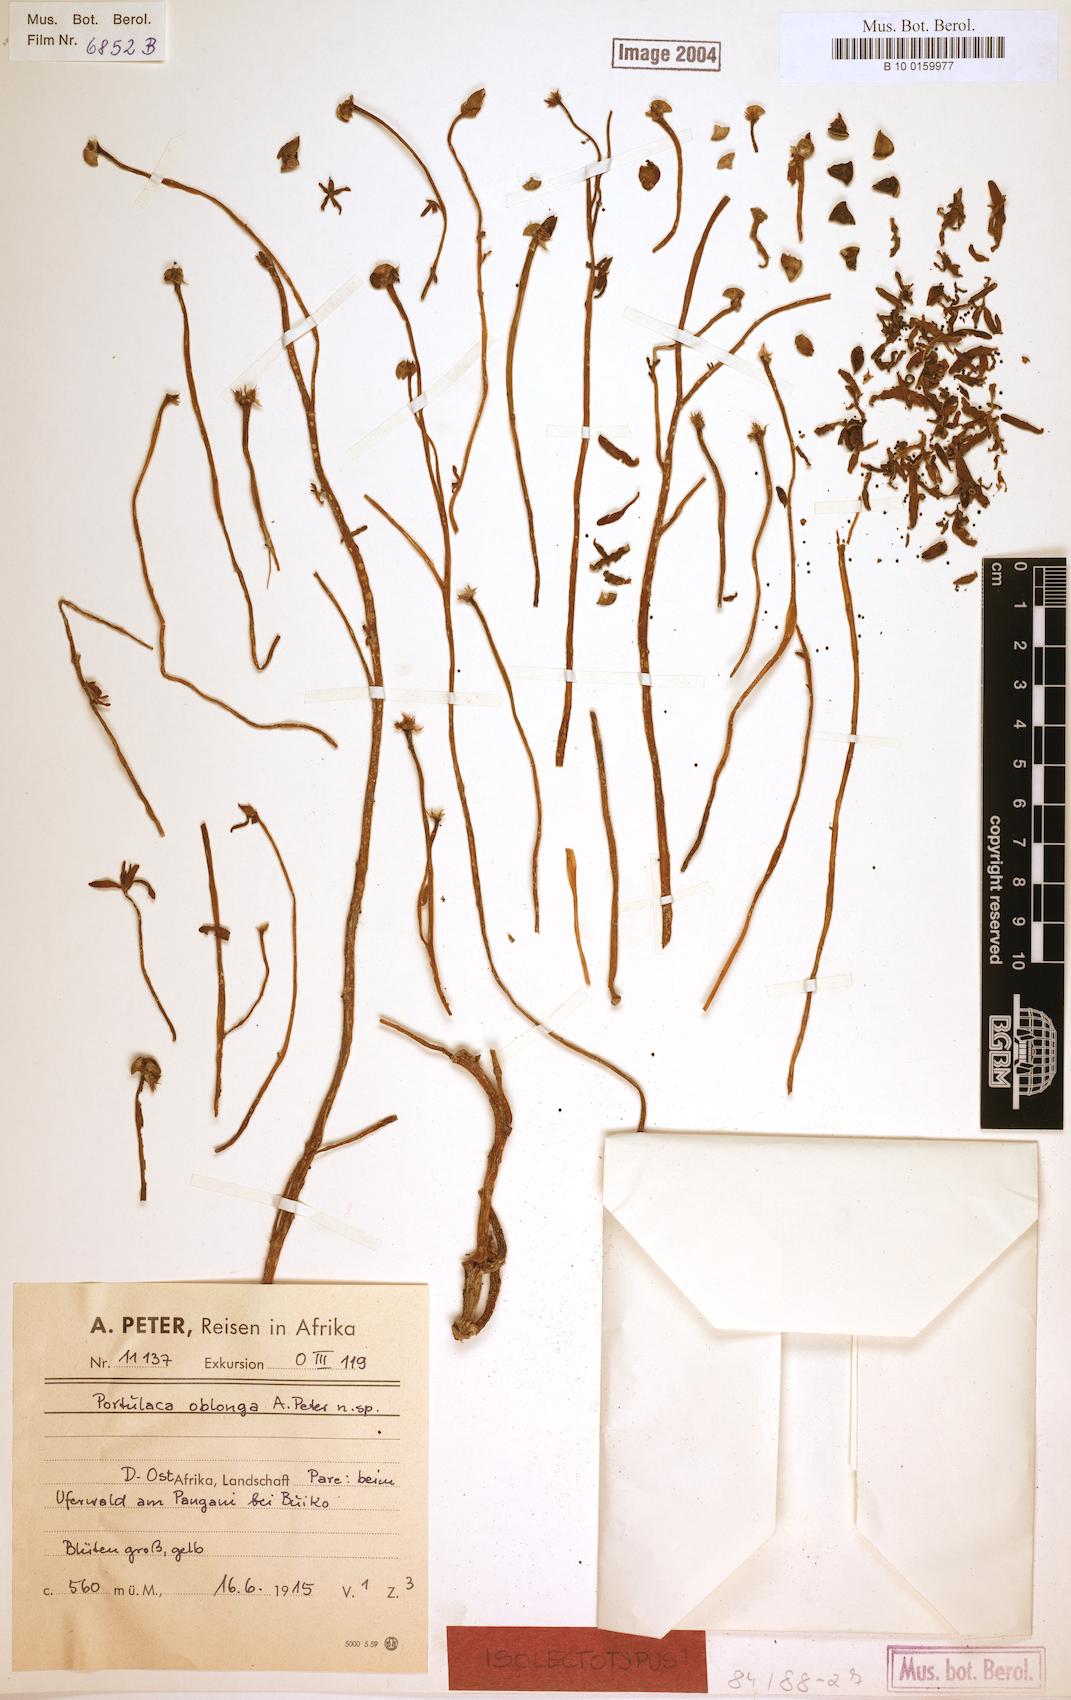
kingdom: Plantae
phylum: Tracheophyta
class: Magnoliopsida
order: Caryophyllales
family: Portulacaceae
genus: Portulaca
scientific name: Portulaca oblonga
